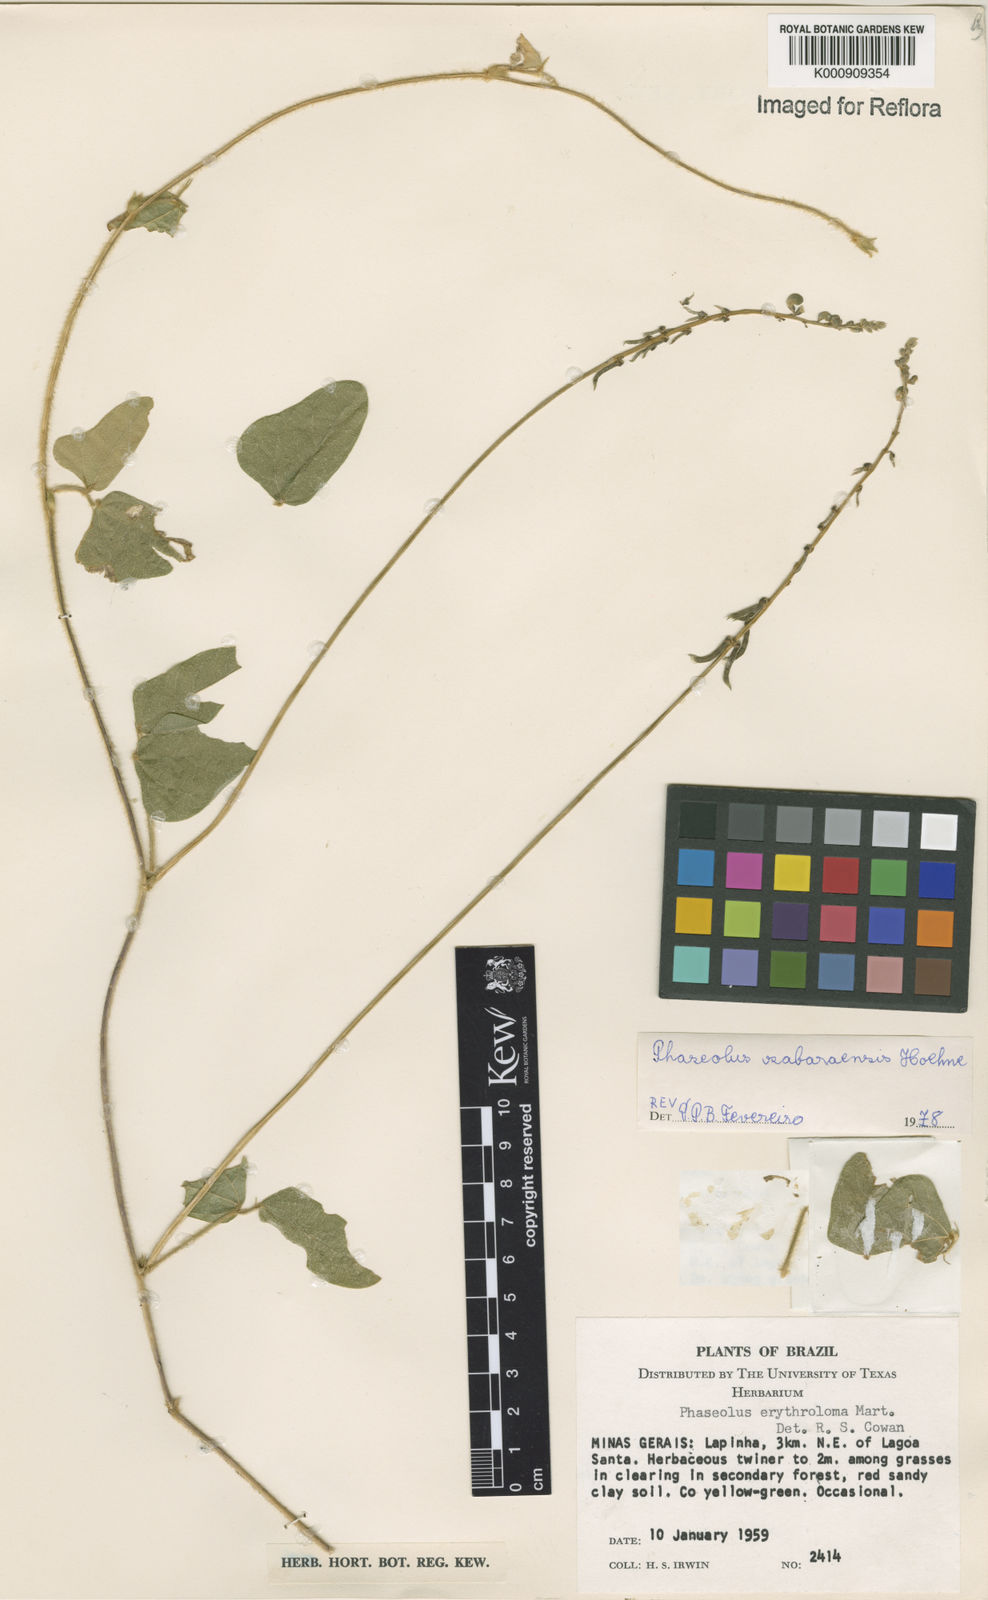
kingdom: Plantae
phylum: Tracheophyta
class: Magnoliopsida
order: Fabales
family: Fabaceae
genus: Macroptilium
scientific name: Macroptilium sabaraense
